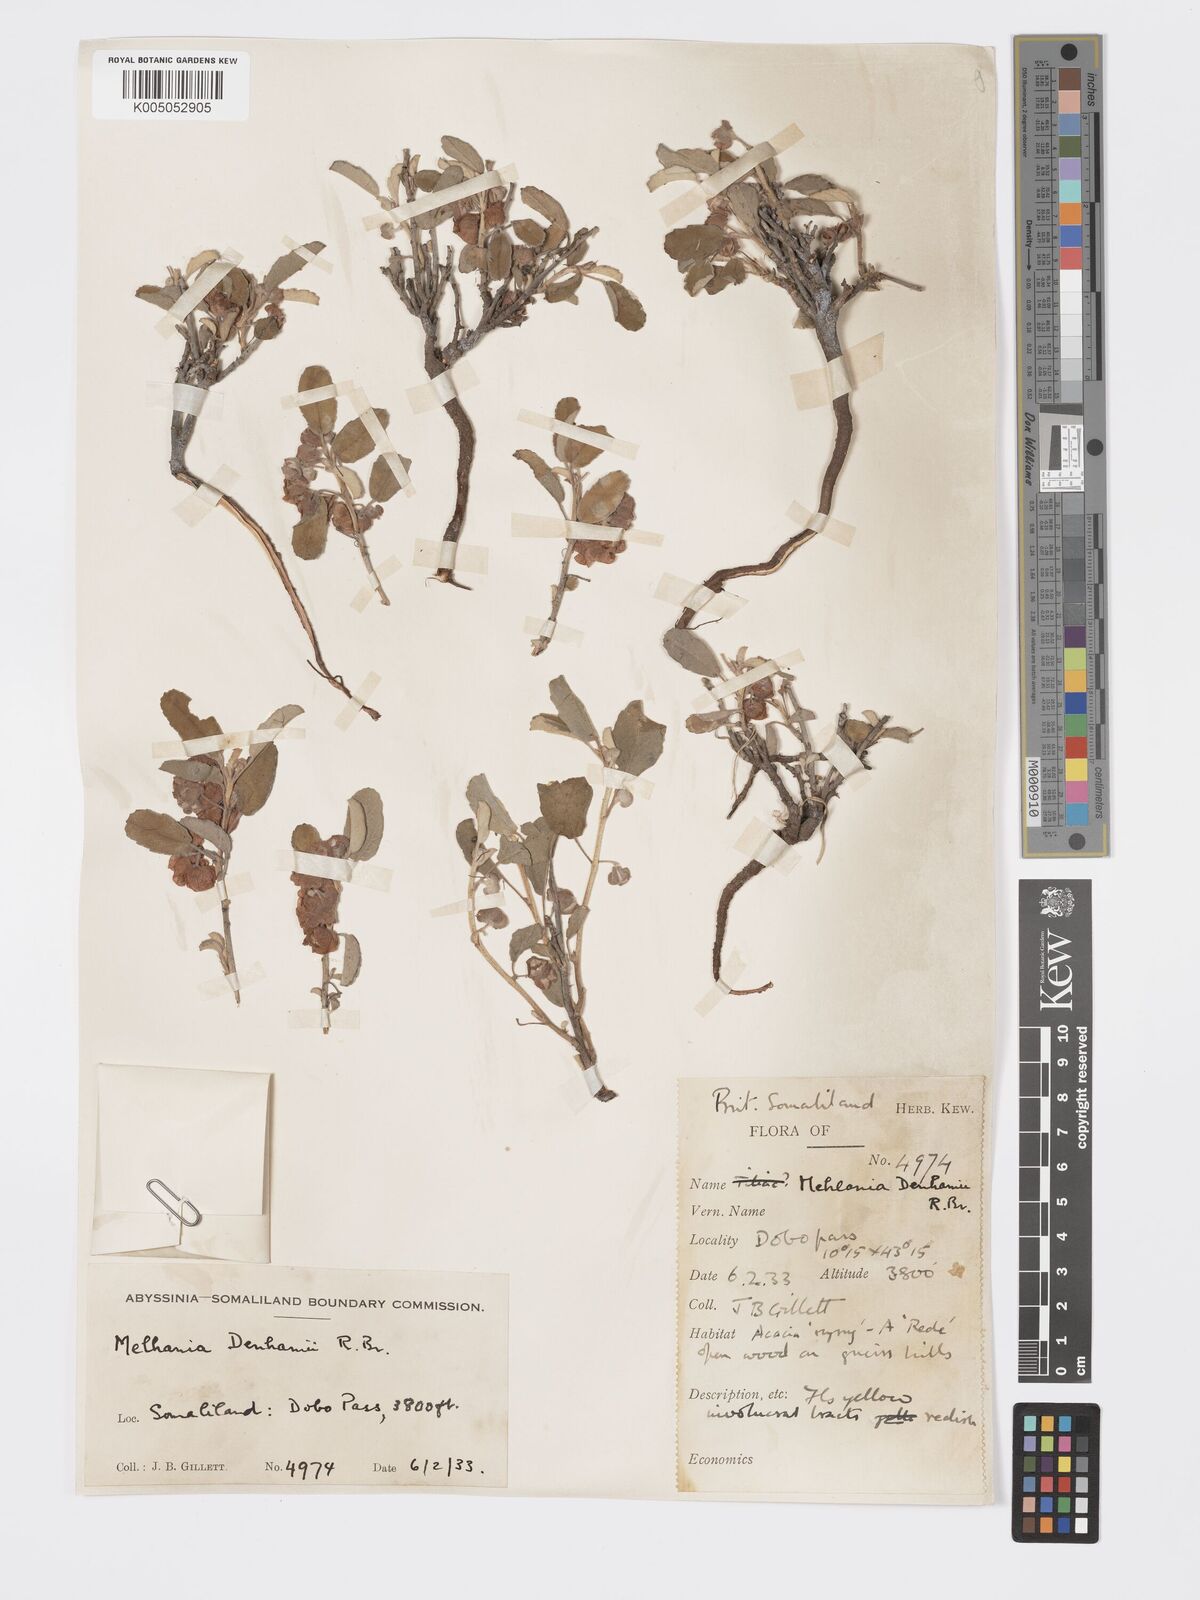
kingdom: Plantae
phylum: Tracheophyta
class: Magnoliopsida
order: Malvales
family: Malvaceae
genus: Melhania
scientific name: Melhania denhamii
